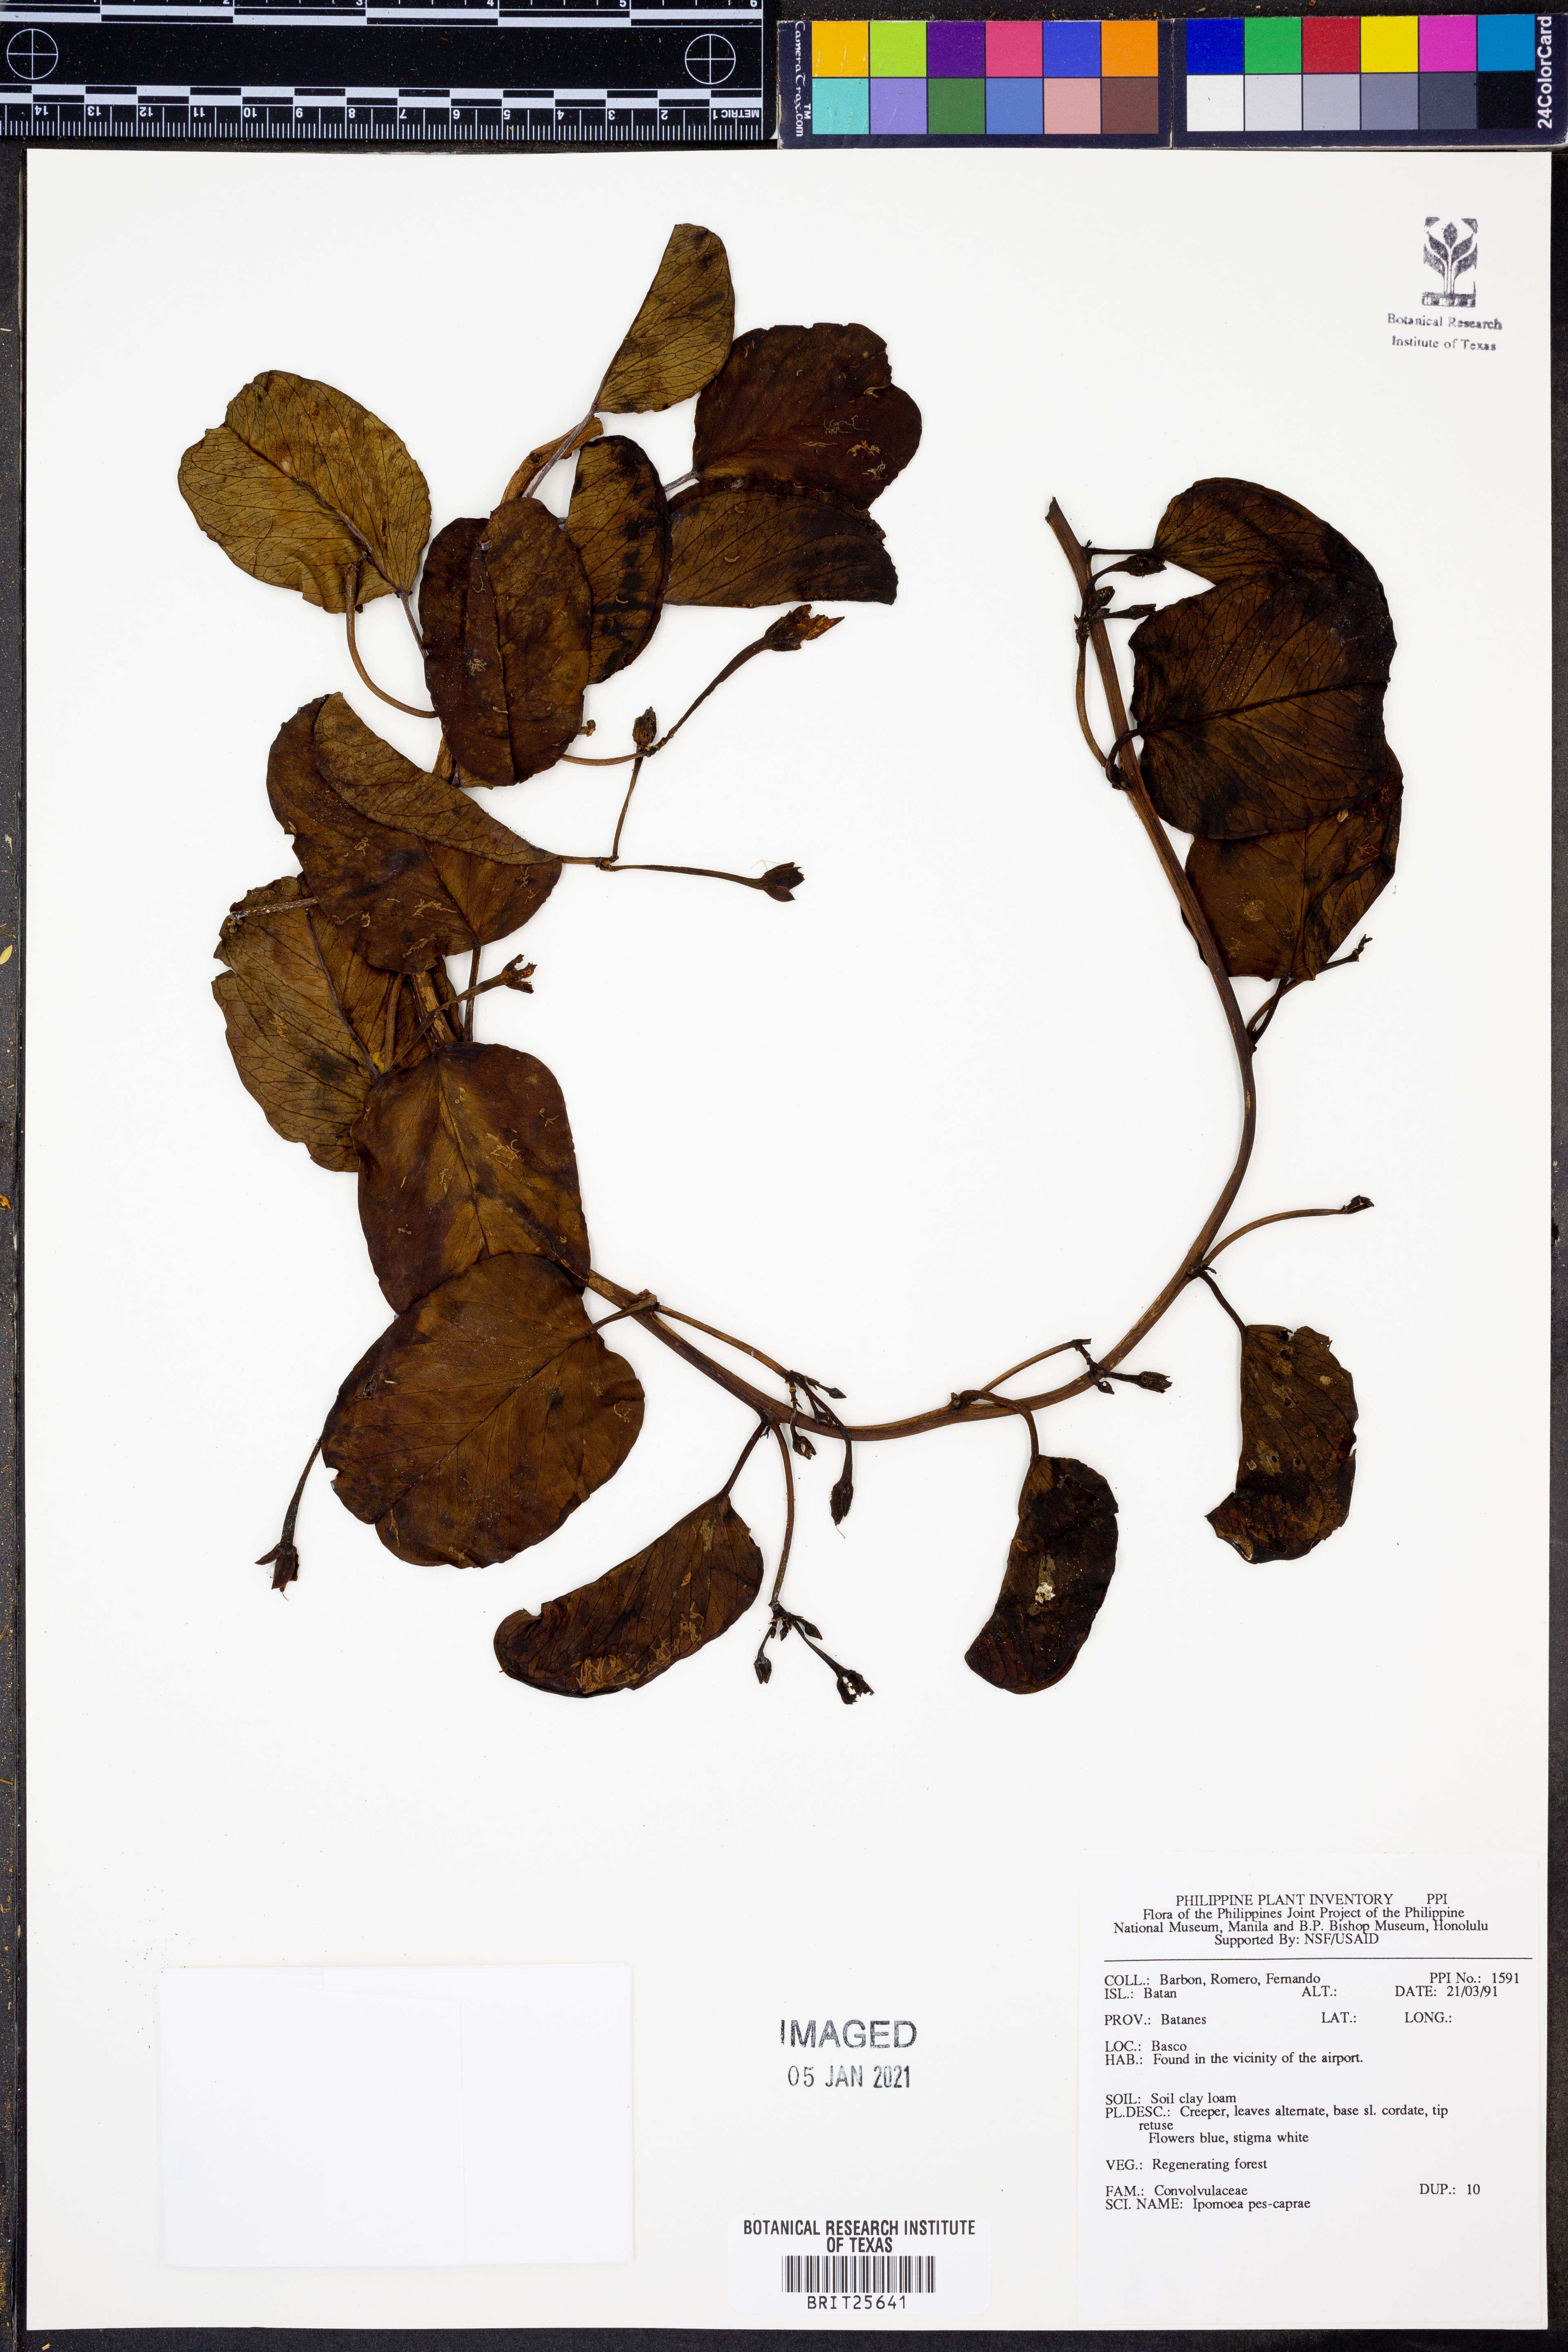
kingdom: Plantae
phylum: Tracheophyta
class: Magnoliopsida
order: Solanales
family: Convolvulaceae
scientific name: Convolvulaceae
